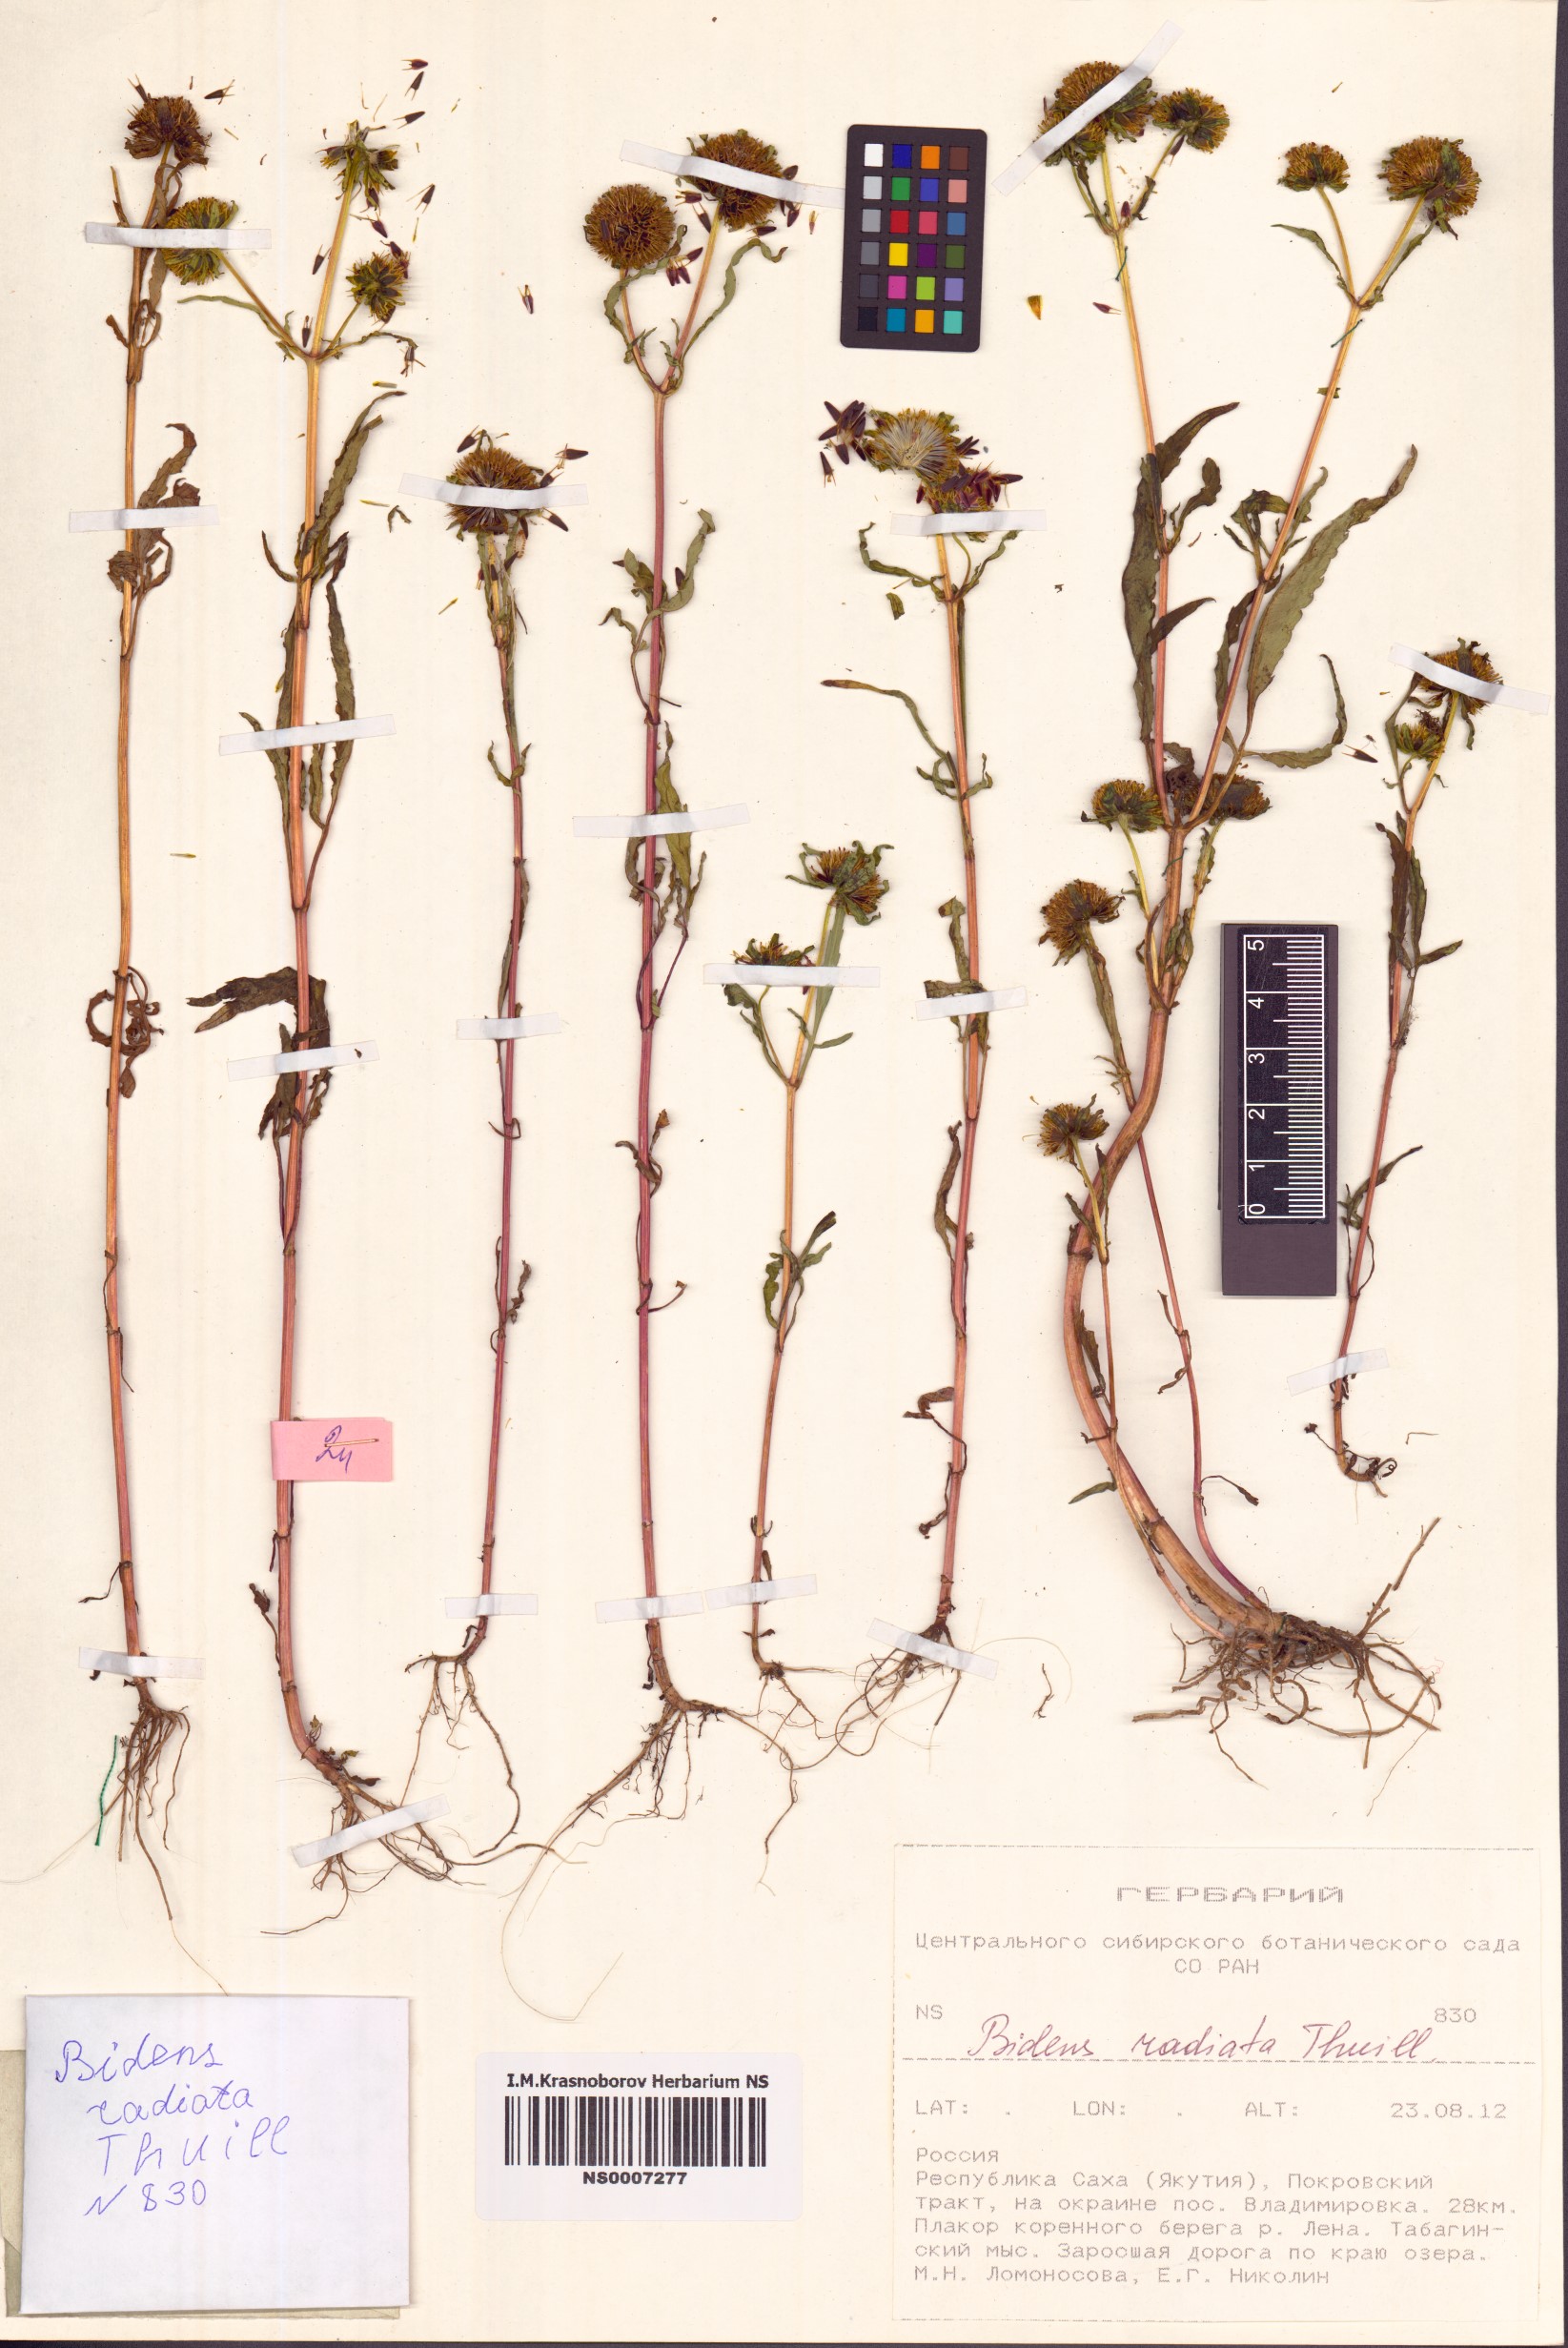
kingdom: Plantae
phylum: Tracheophyta
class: Magnoliopsida
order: Asterales
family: Asteraceae
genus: Bidens
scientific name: Bidens radiata
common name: Radiating bur-marigold
